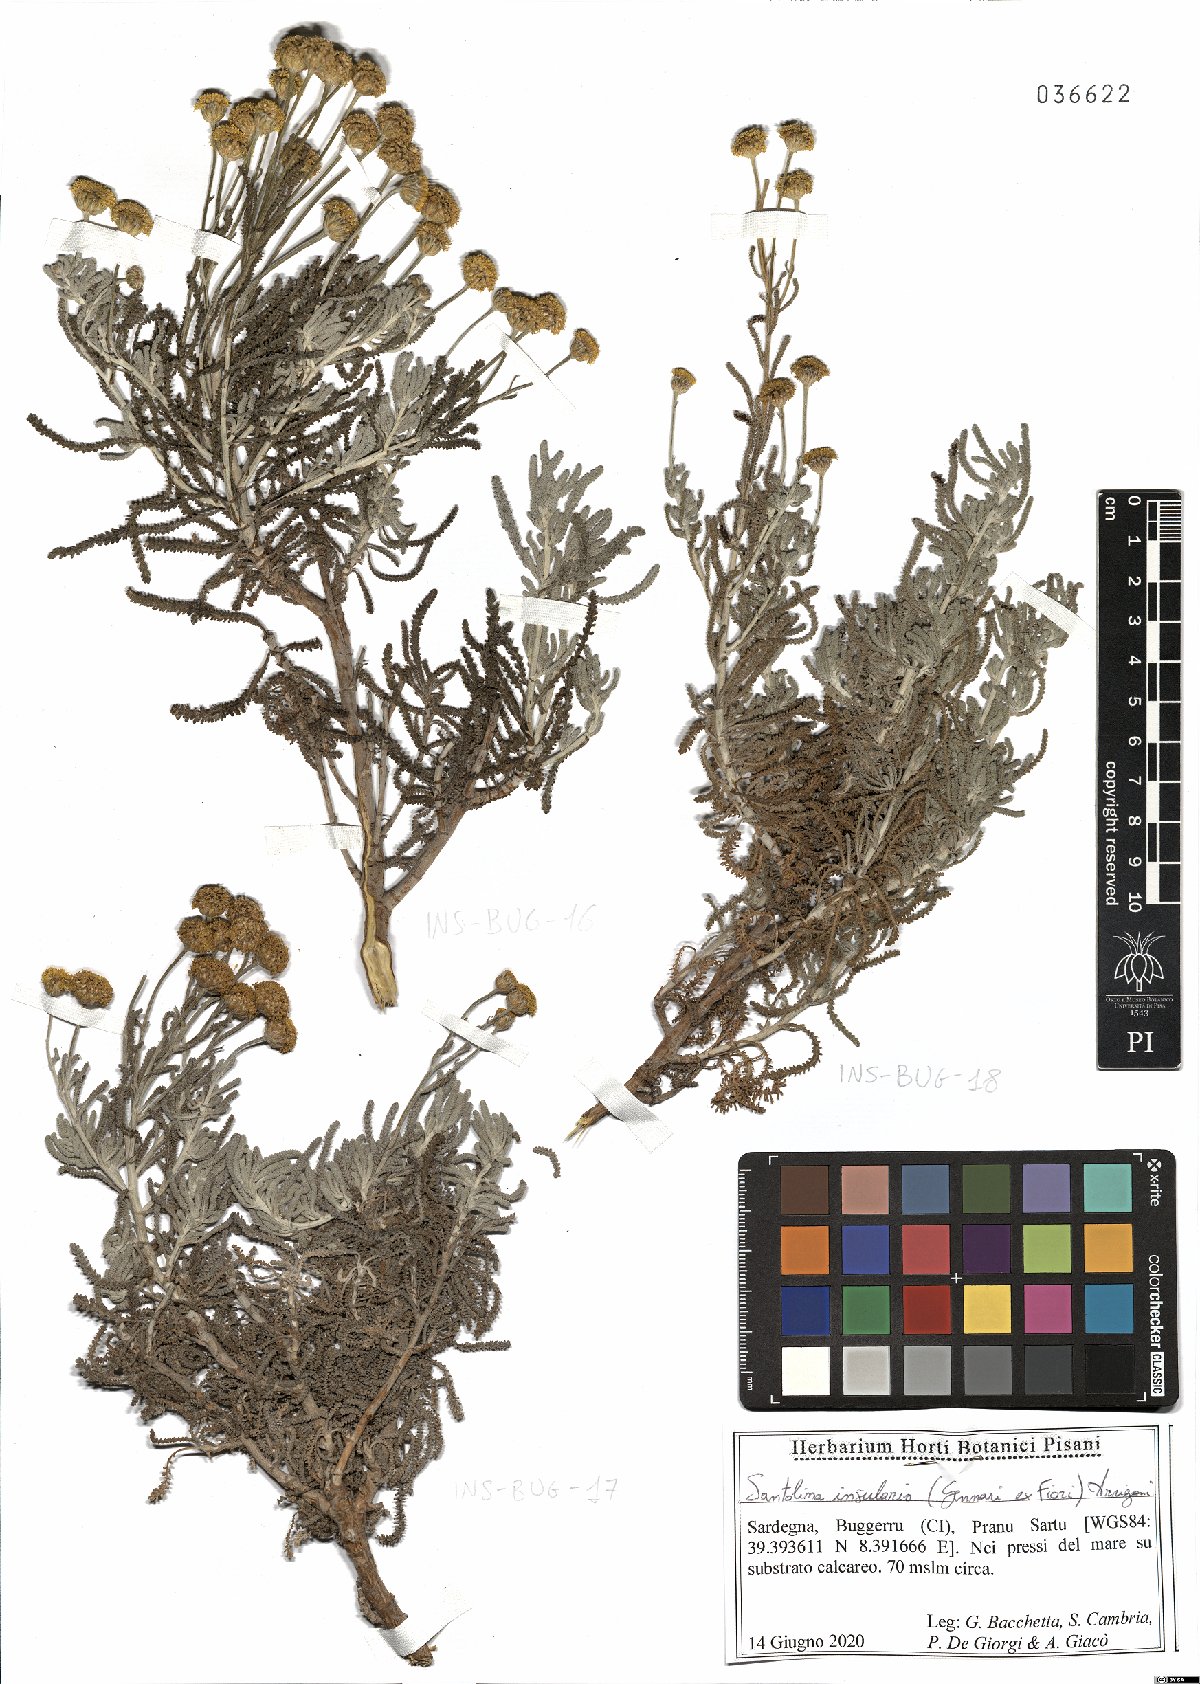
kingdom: Plantae
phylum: Tracheophyta
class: Magnoliopsida
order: Asterales
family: Asteraceae
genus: Santolina
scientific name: Santolina insularis
